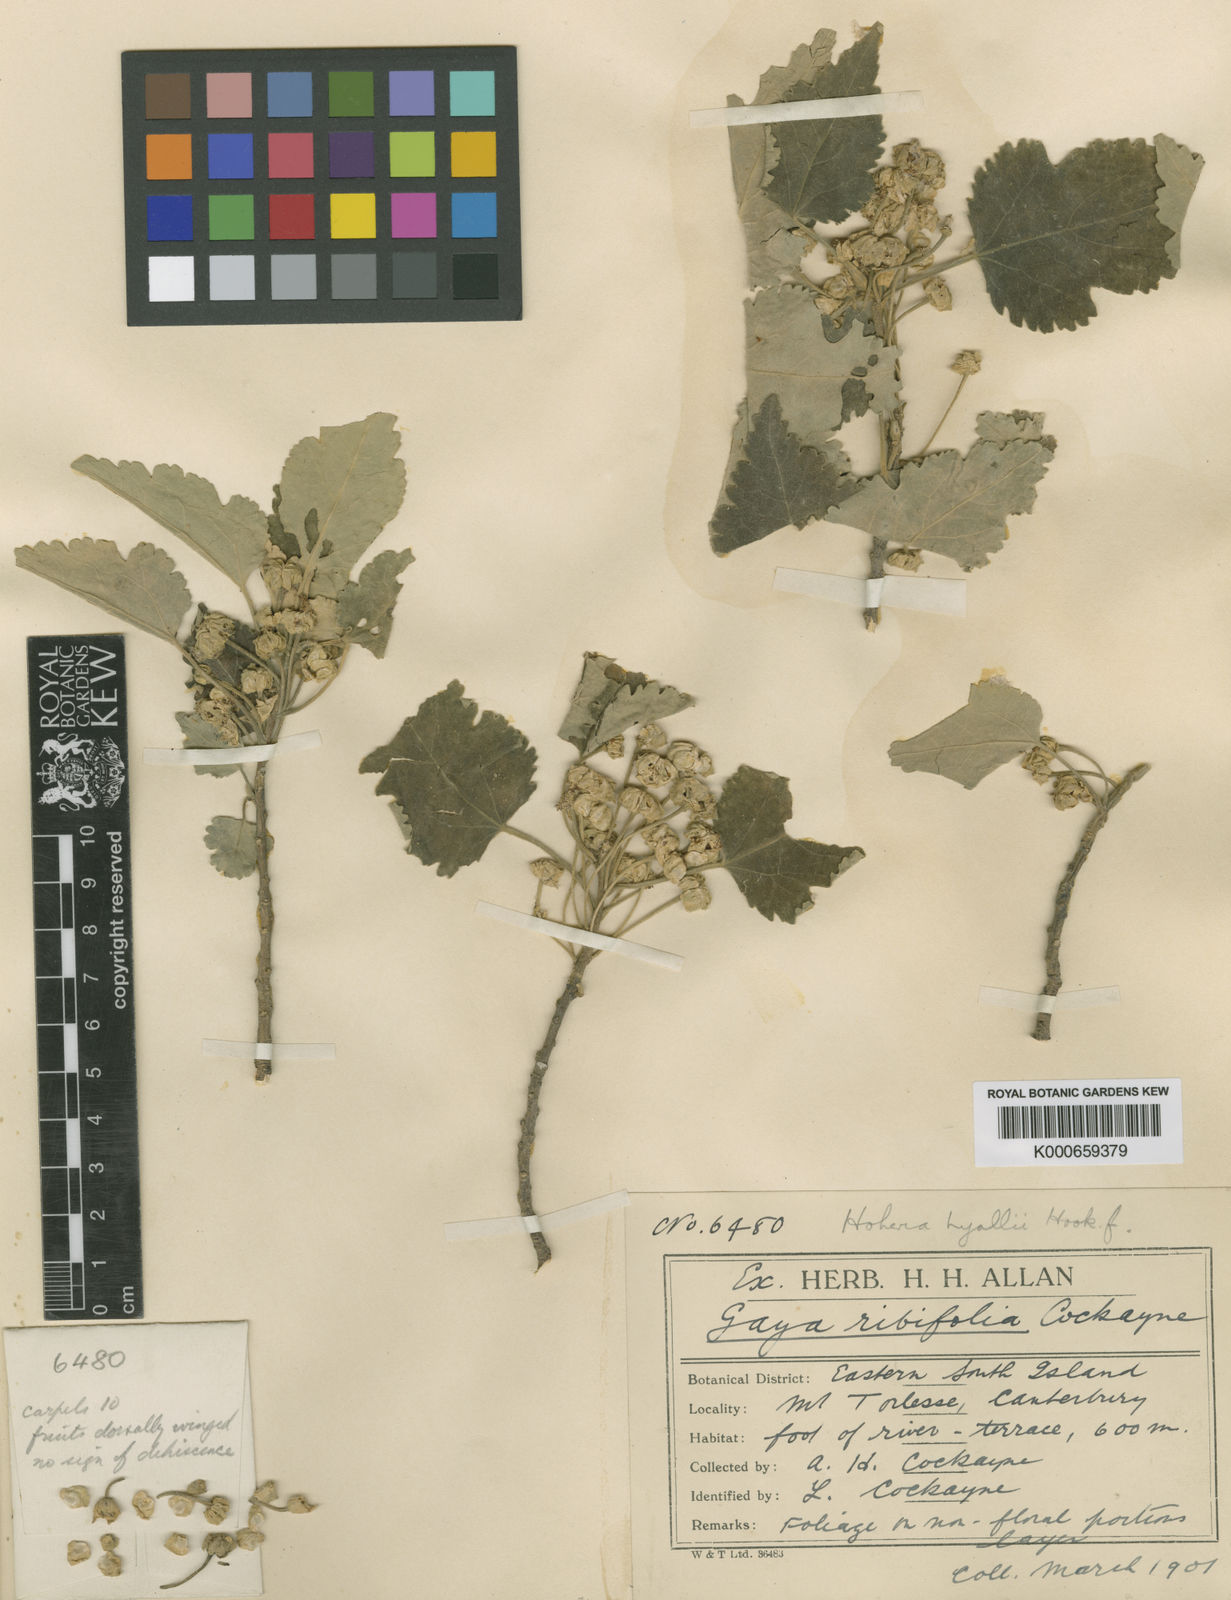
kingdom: Plantae
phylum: Tracheophyta
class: Magnoliopsida
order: Malvales
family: Malvaceae
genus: Hoheria
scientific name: Hoheria lyallii
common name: Lacebark
